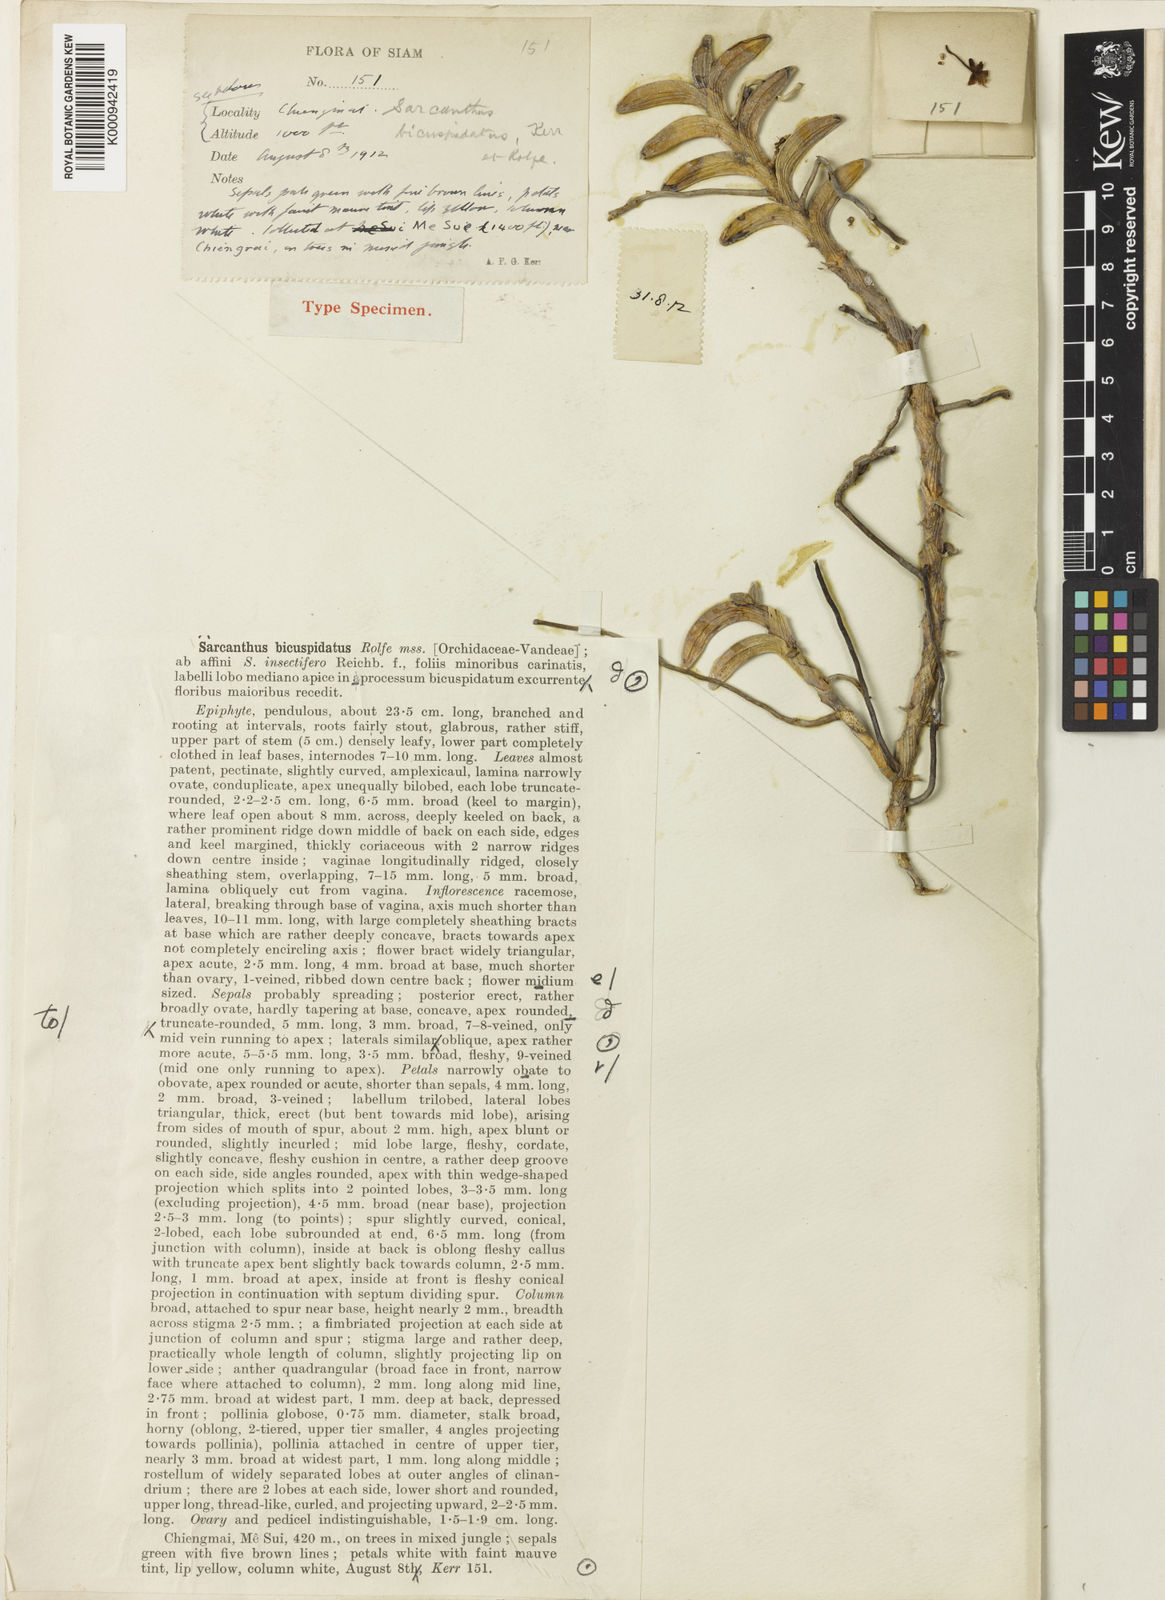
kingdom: Plantae
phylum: Tracheophyta
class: Liliopsida
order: Asparagales
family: Orchidaceae
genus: Pelatantheria
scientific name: Pelatantheria bicuspidata
